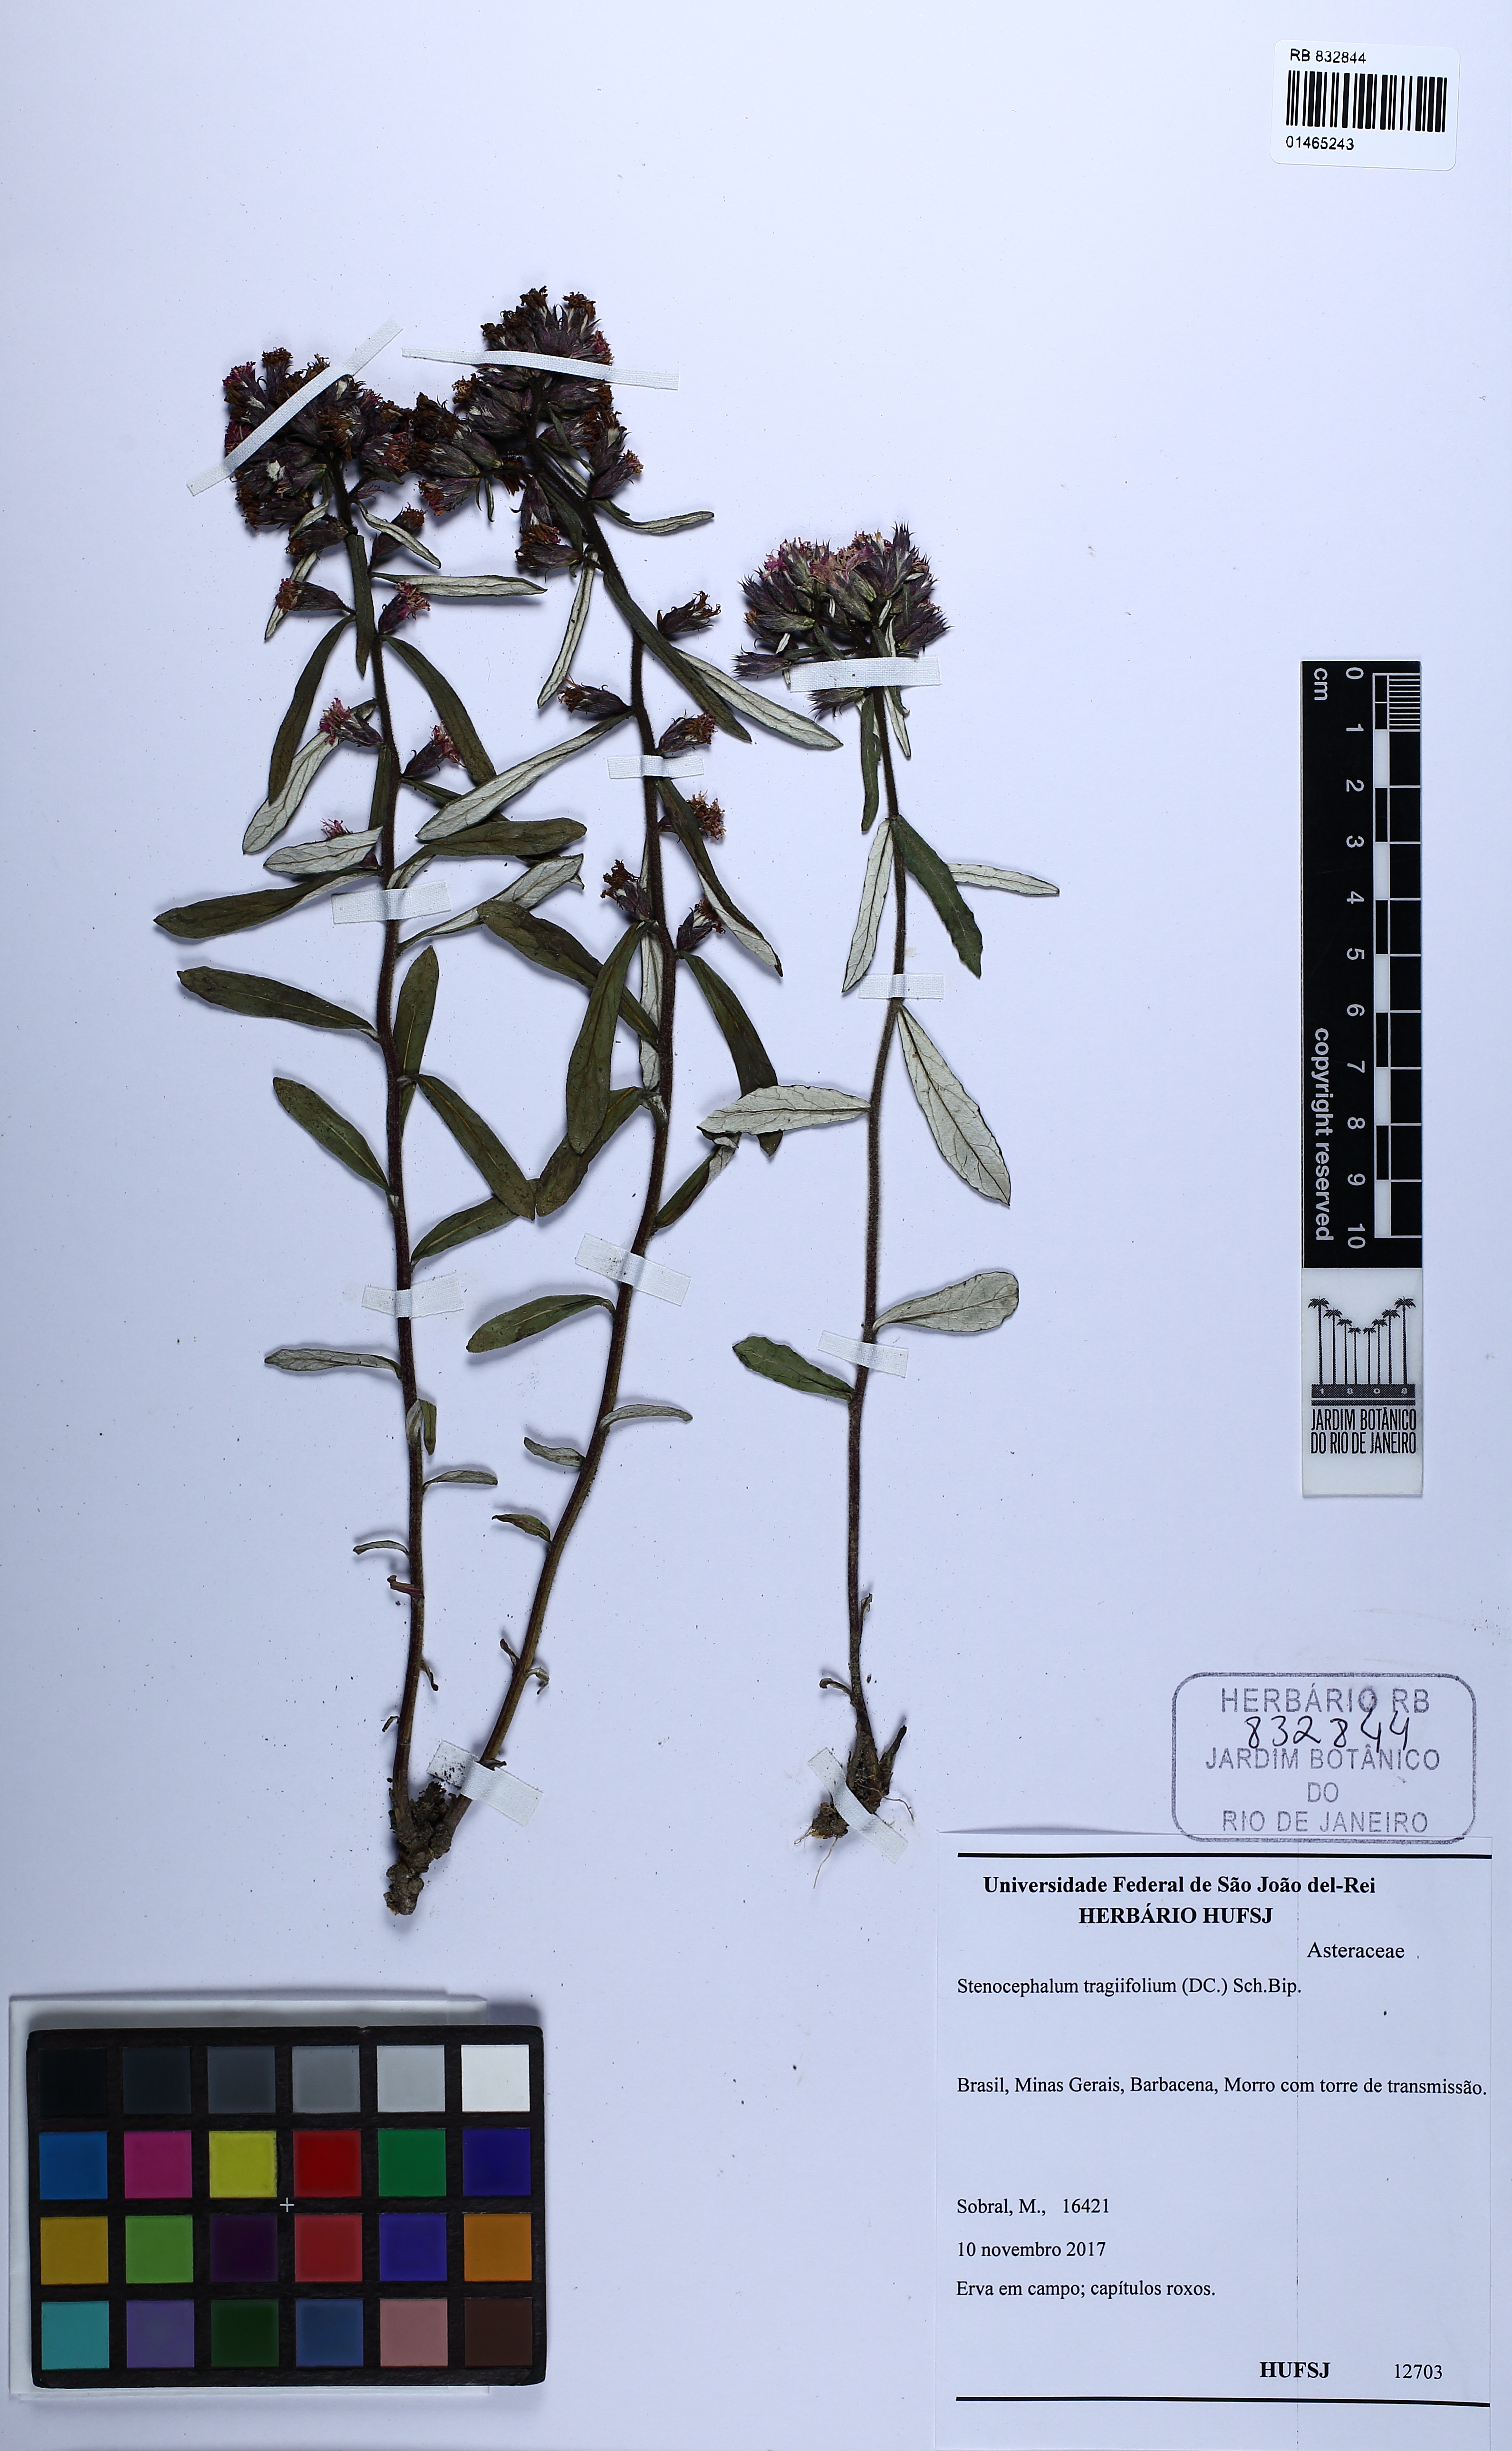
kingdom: Plantae
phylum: Tracheophyta
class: Magnoliopsida
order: Asterales
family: Asteraceae
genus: Stenocephalum
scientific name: Stenocephalum tragiaefolium
